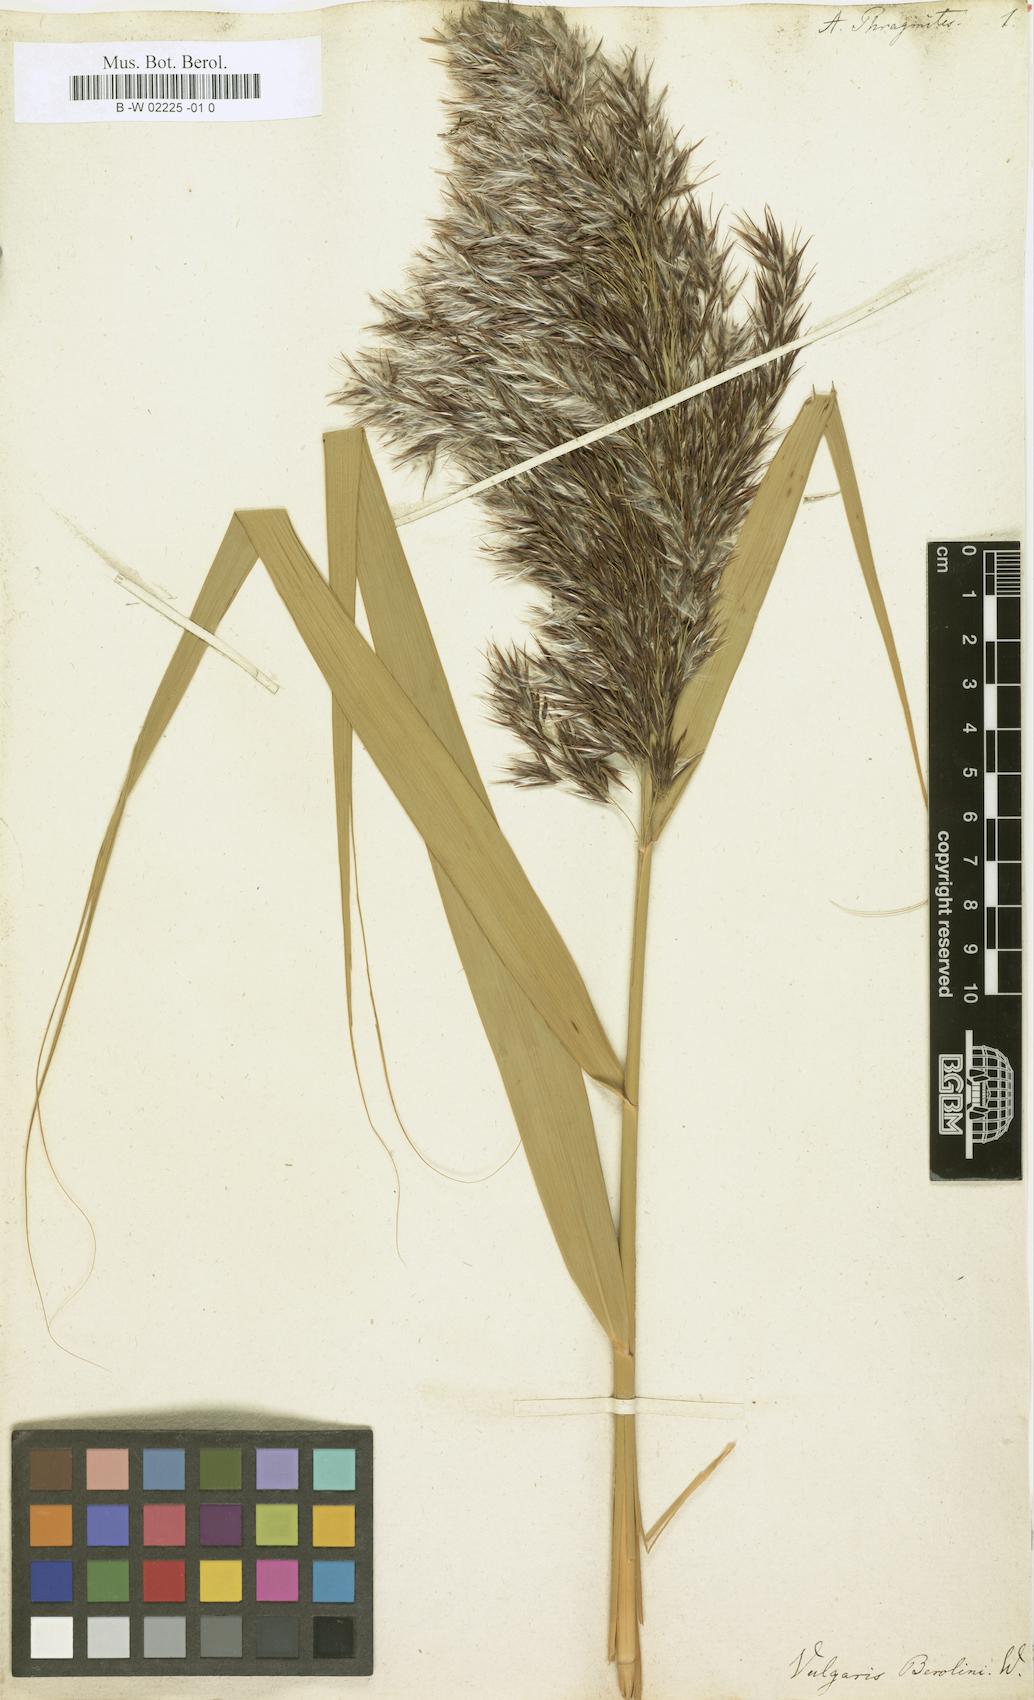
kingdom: Plantae
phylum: Tracheophyta
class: Liliopsida
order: Poales
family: Poaceae
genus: Phragmites
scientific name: Phragmites australis
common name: Common reed
